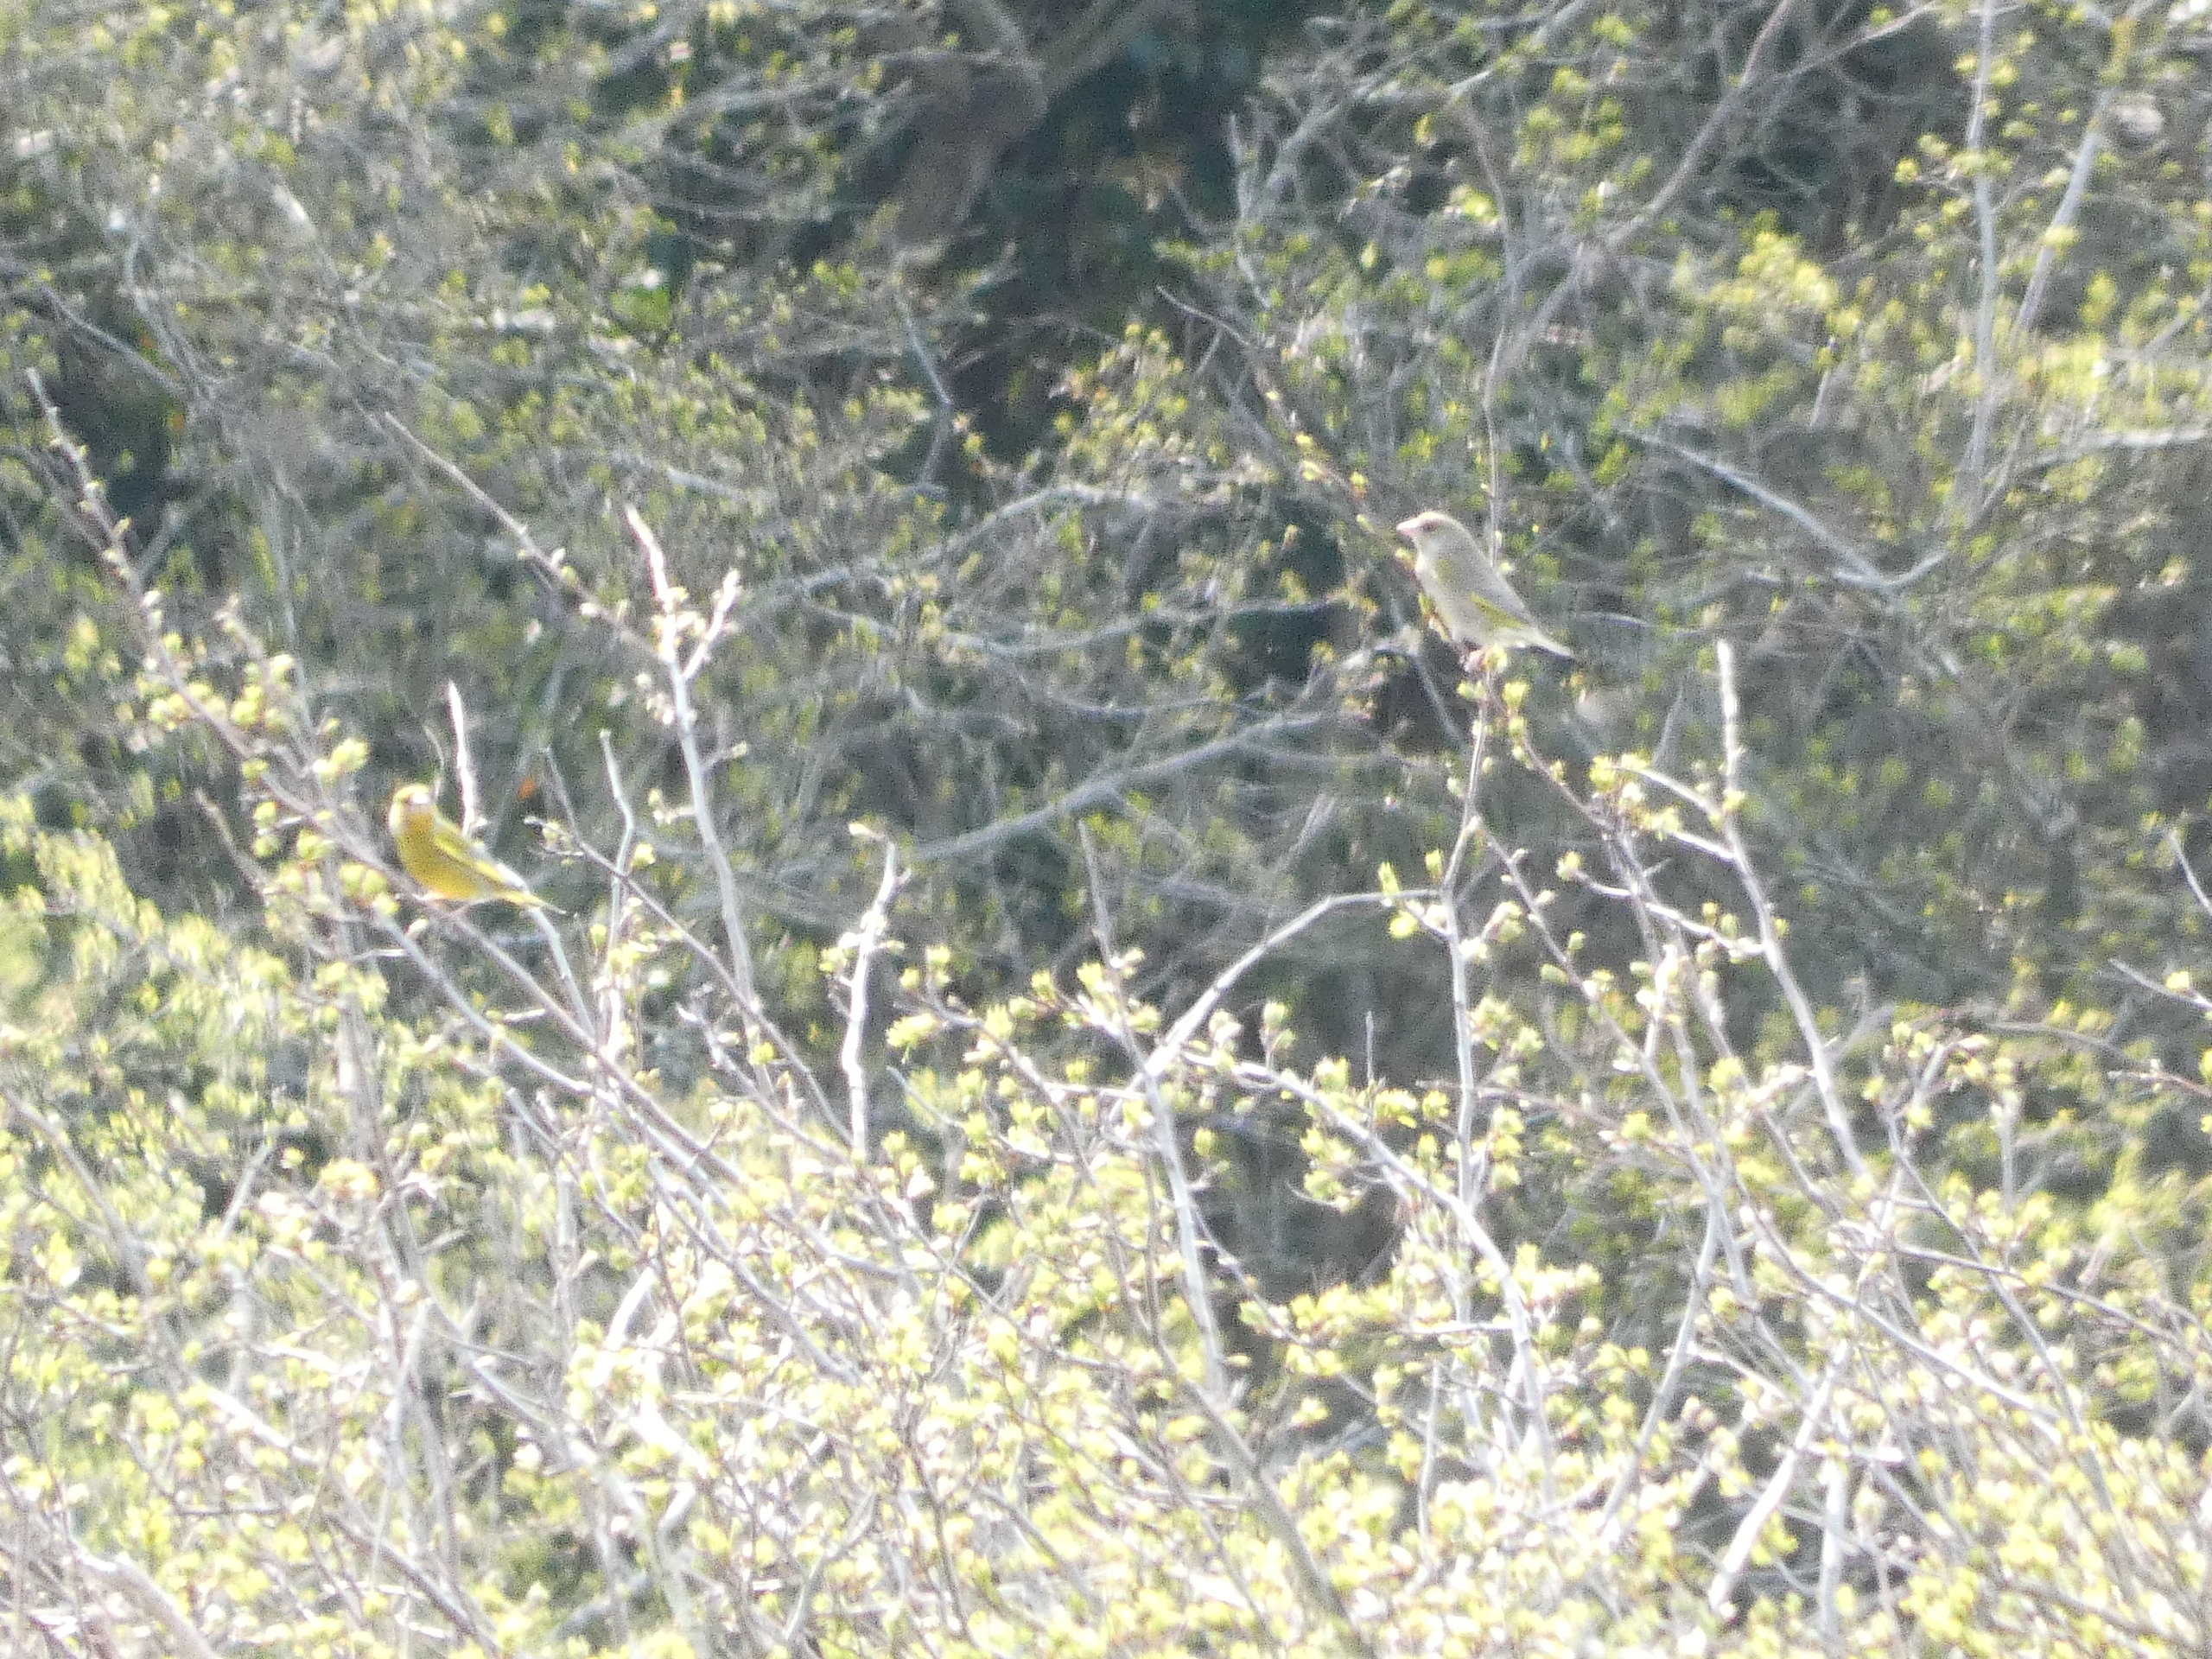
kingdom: Plantae
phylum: Tracheophyta
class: Liliopsida
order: Poales
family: Poaceae
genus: Chloris
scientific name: Chloris chloris
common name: Grønirisk
